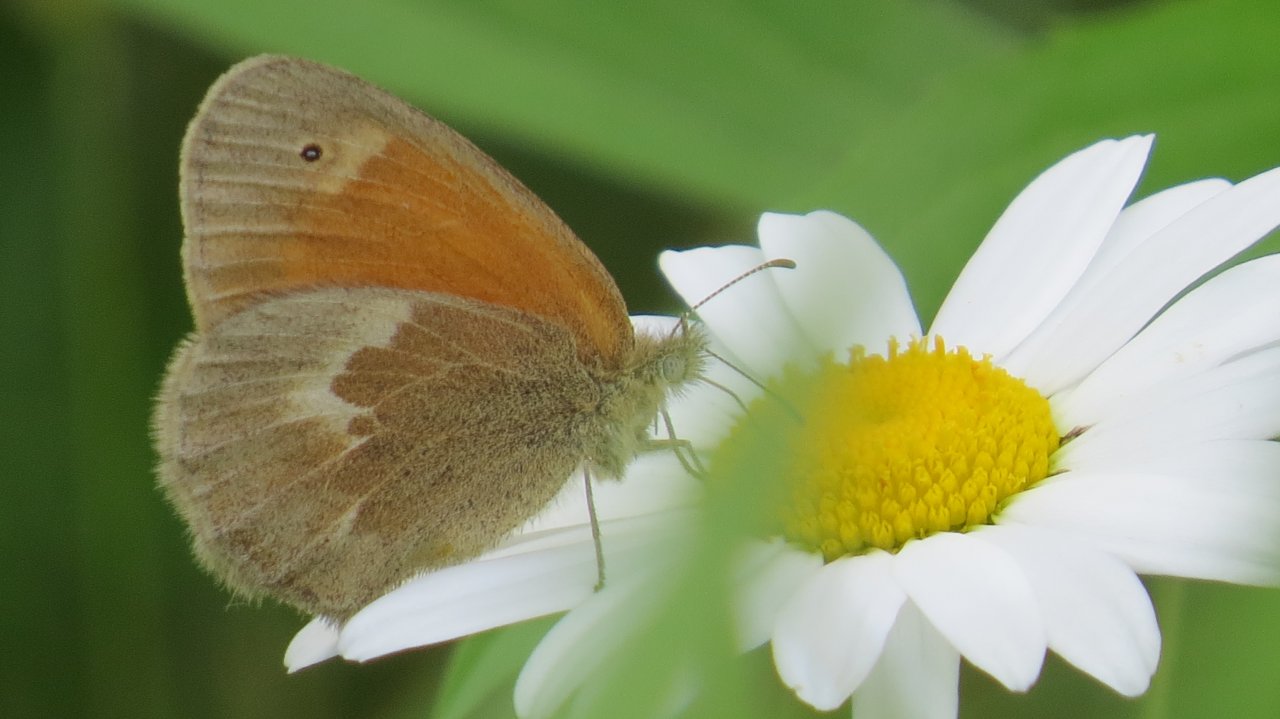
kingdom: Animalia
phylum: Arthropoda
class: Insecta
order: Lepidoptera
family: Nymphalidae
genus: Coenonympha
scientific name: Coenonympha tullia
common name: Large Heath
